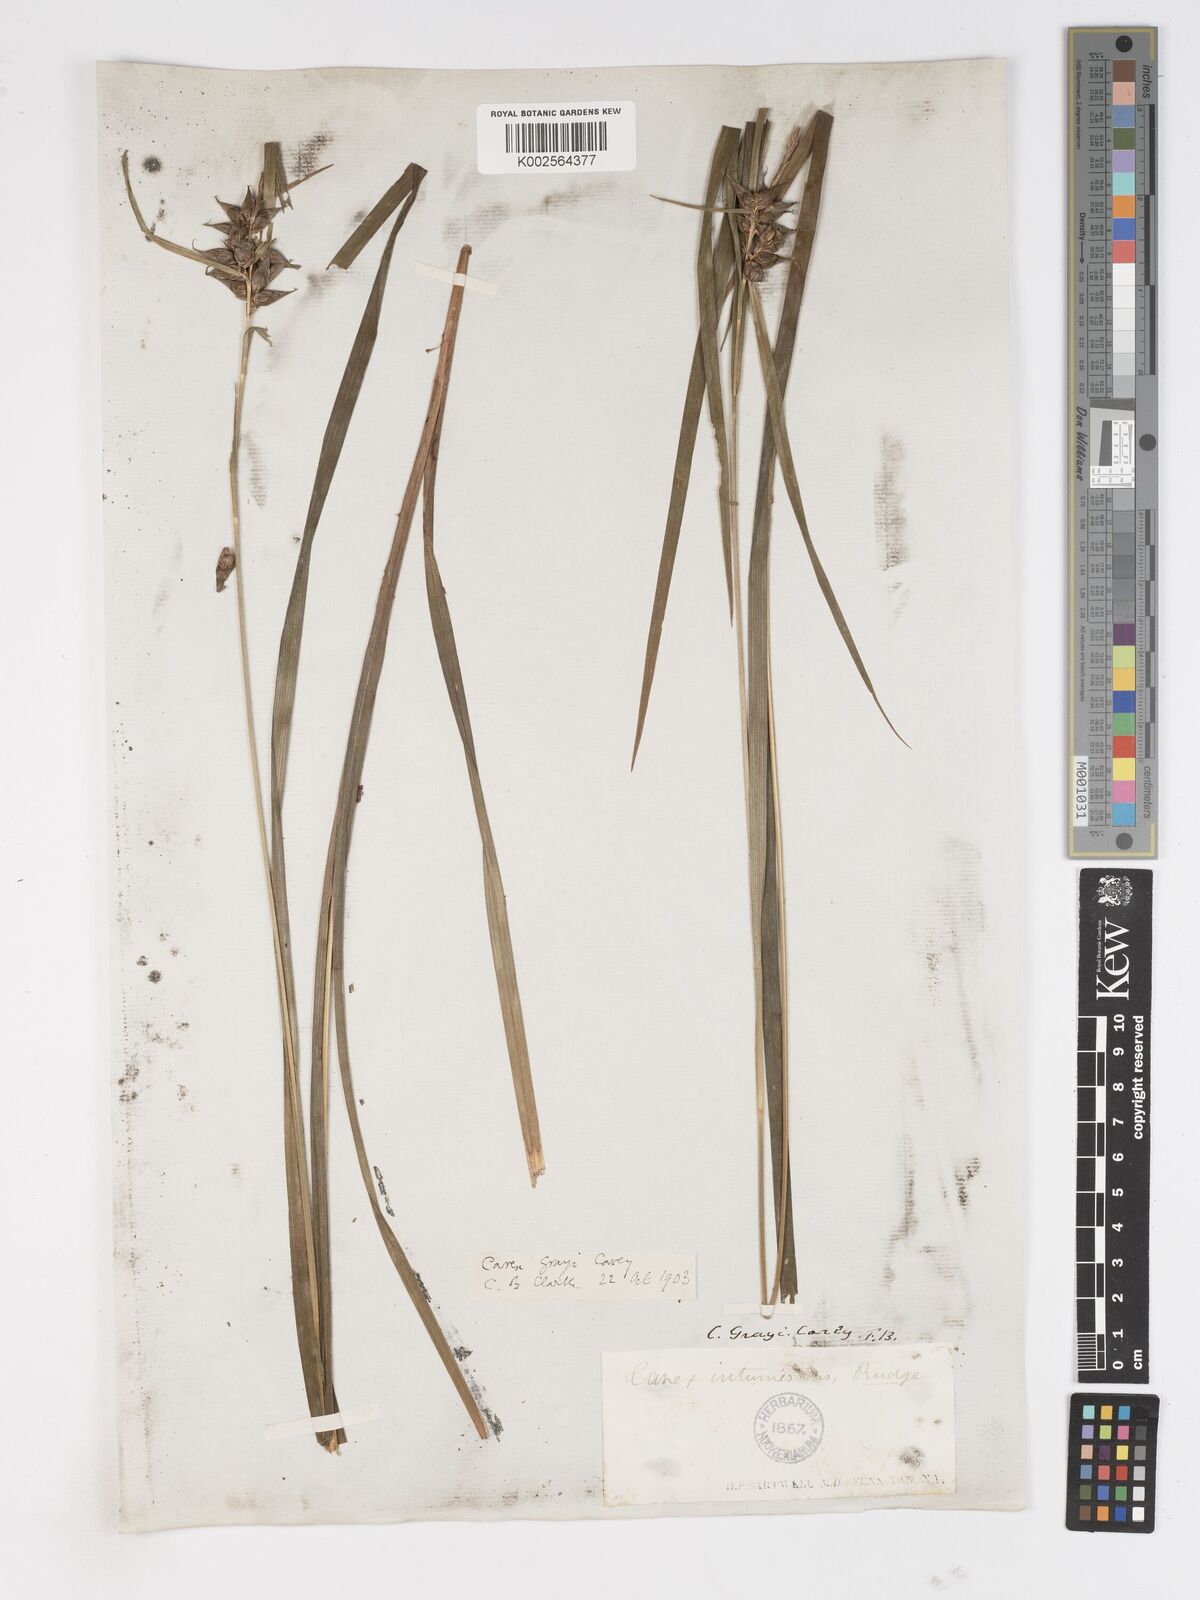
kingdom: Plantae
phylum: Tracheophyta
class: Liliopsida
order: Poales
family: Cyperaceae
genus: Carex
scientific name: Carex grayi
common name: Asa gray's sedge
